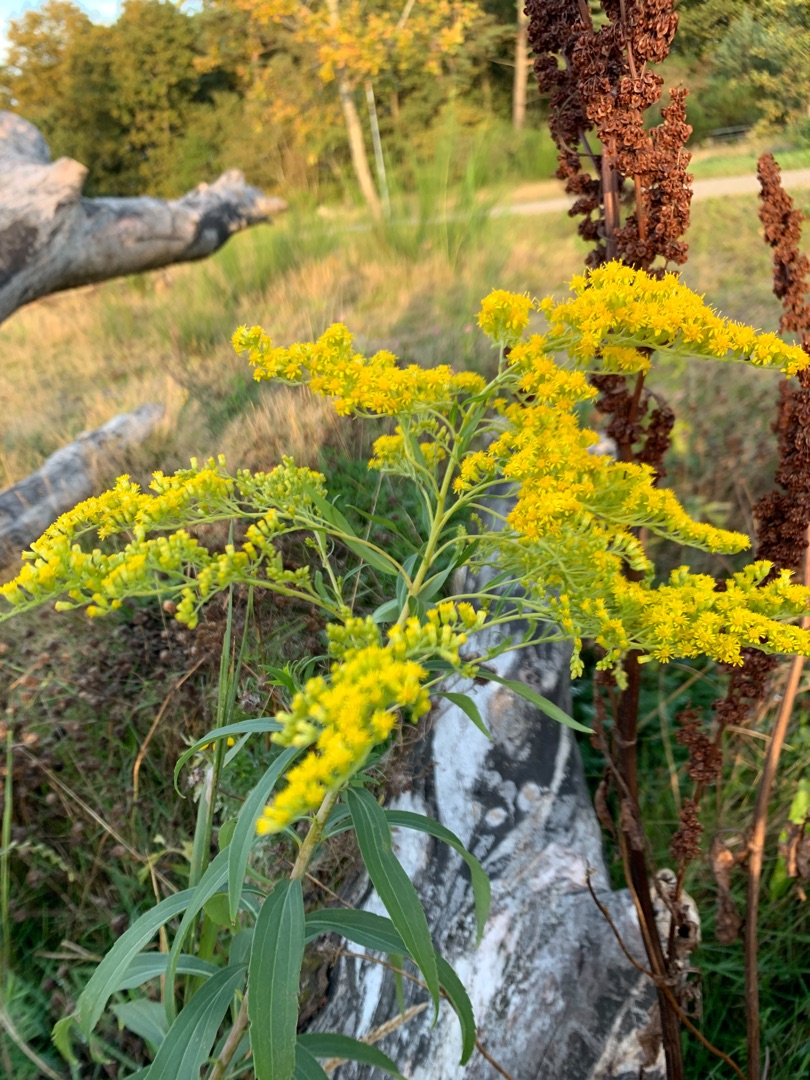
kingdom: Plantae
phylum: Tracheophyta
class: Magnoliopsida
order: Asterales
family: Asteraceae
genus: Solidago
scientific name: Solidago gigantea
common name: Sildig gyldenris
